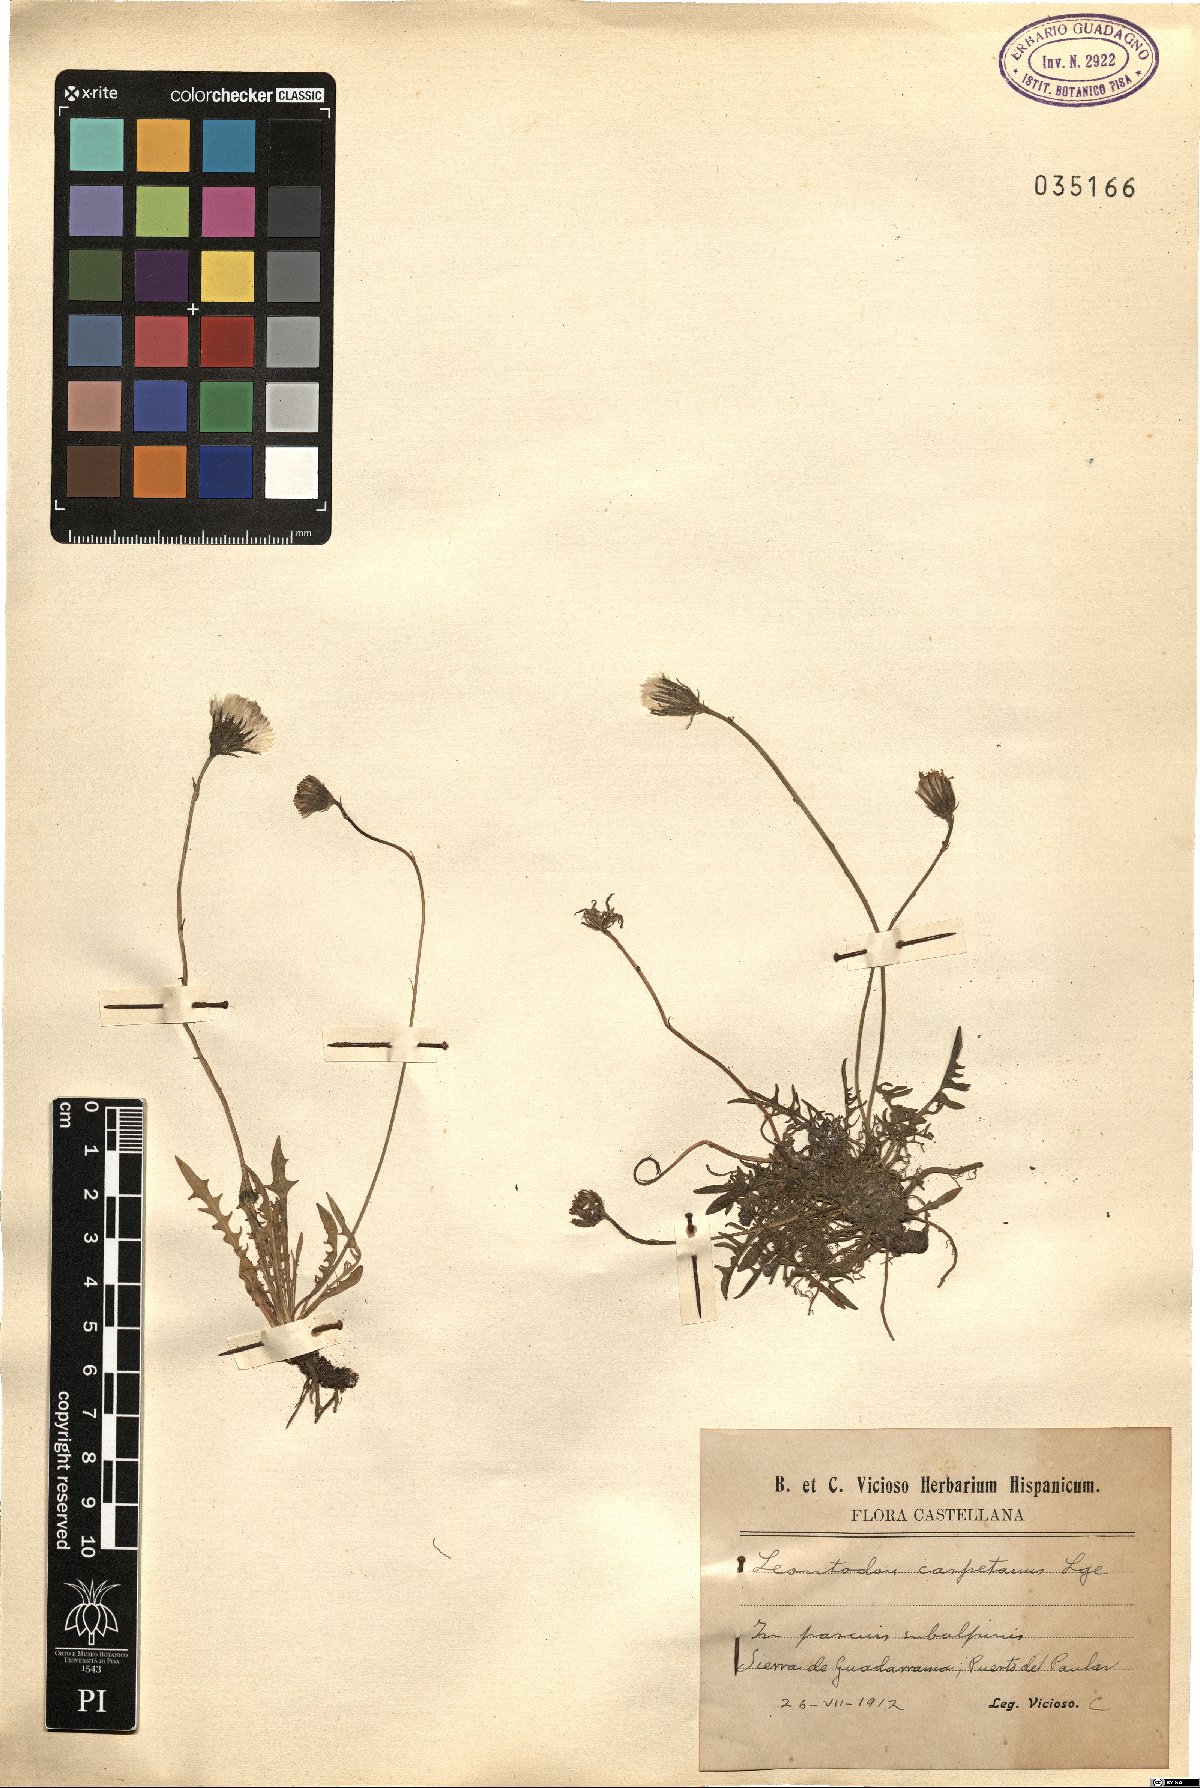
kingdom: Plantae
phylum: Tracheophyta
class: Magnoliopsida
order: Asterales
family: Asteraceae
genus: Scorzoneroides
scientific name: Scorzoneroides carpetana
